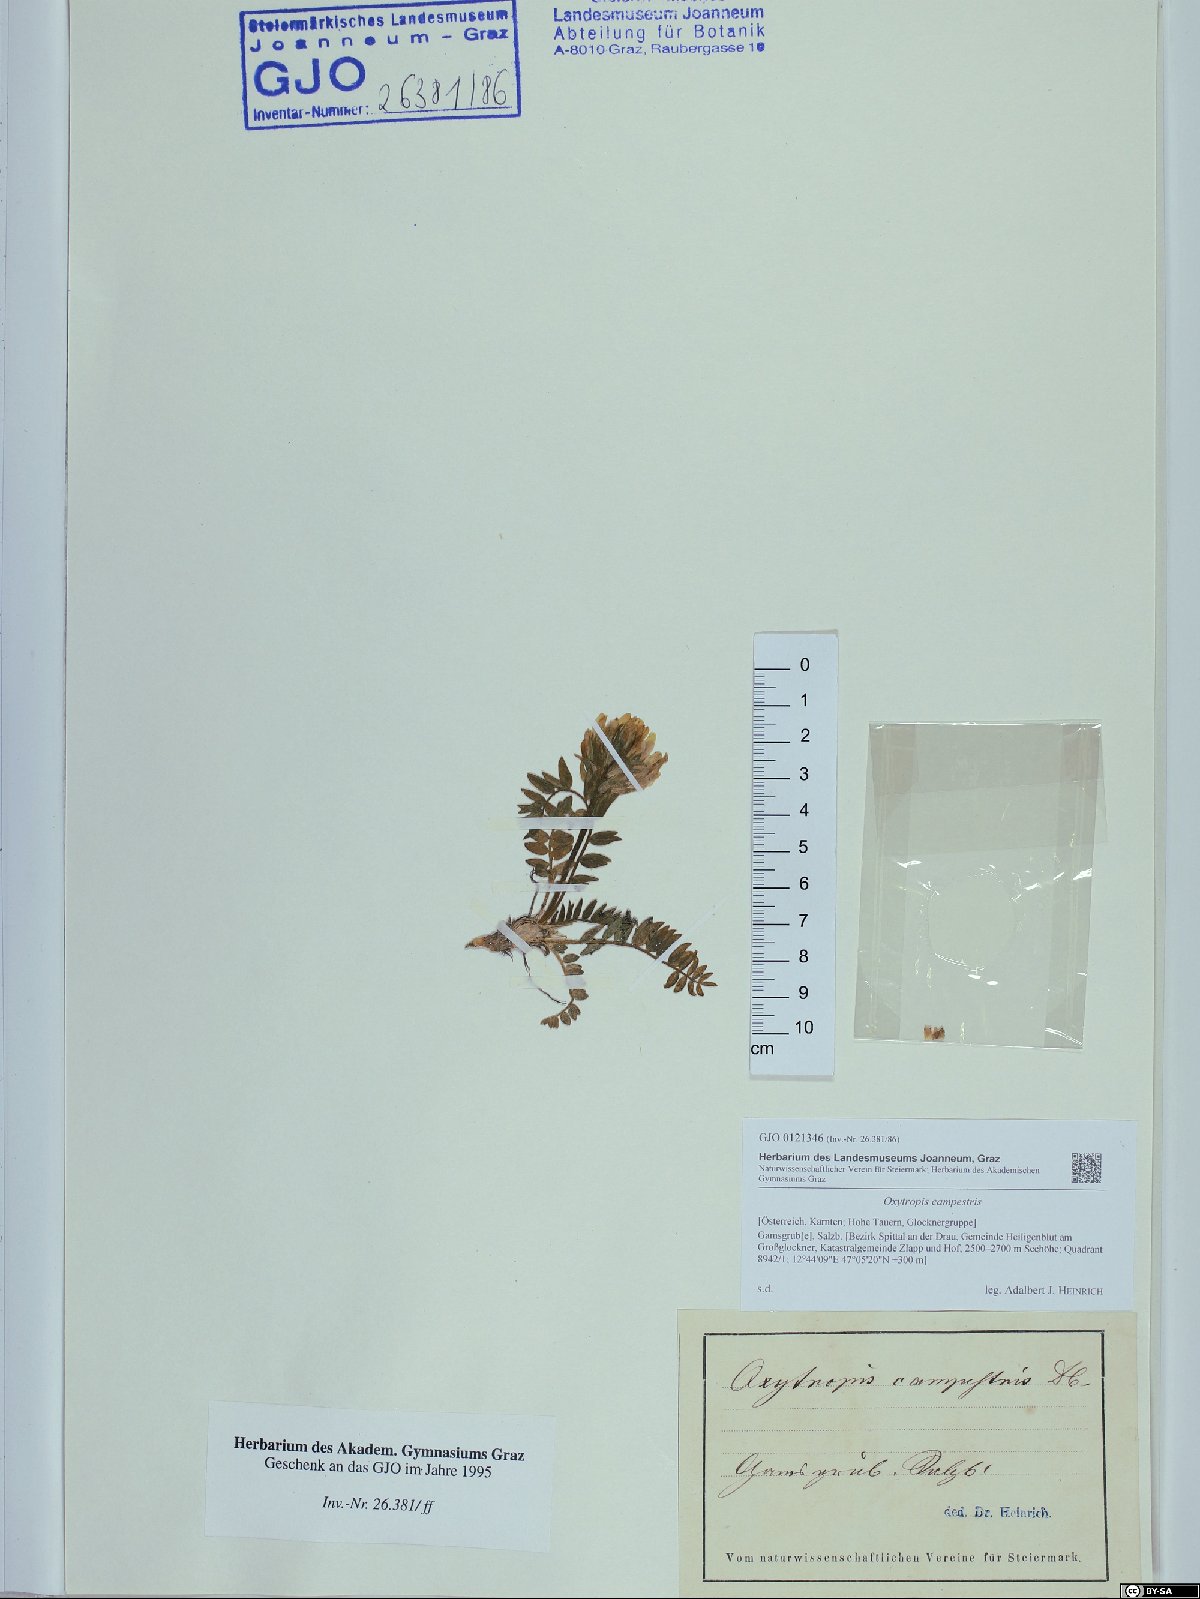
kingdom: Plantae
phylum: Tracheophyta
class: Magnoliopsida
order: Fabales
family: Fabaceae
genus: Oxytropis
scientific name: Oxytropis campestris
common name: Field locoweed
